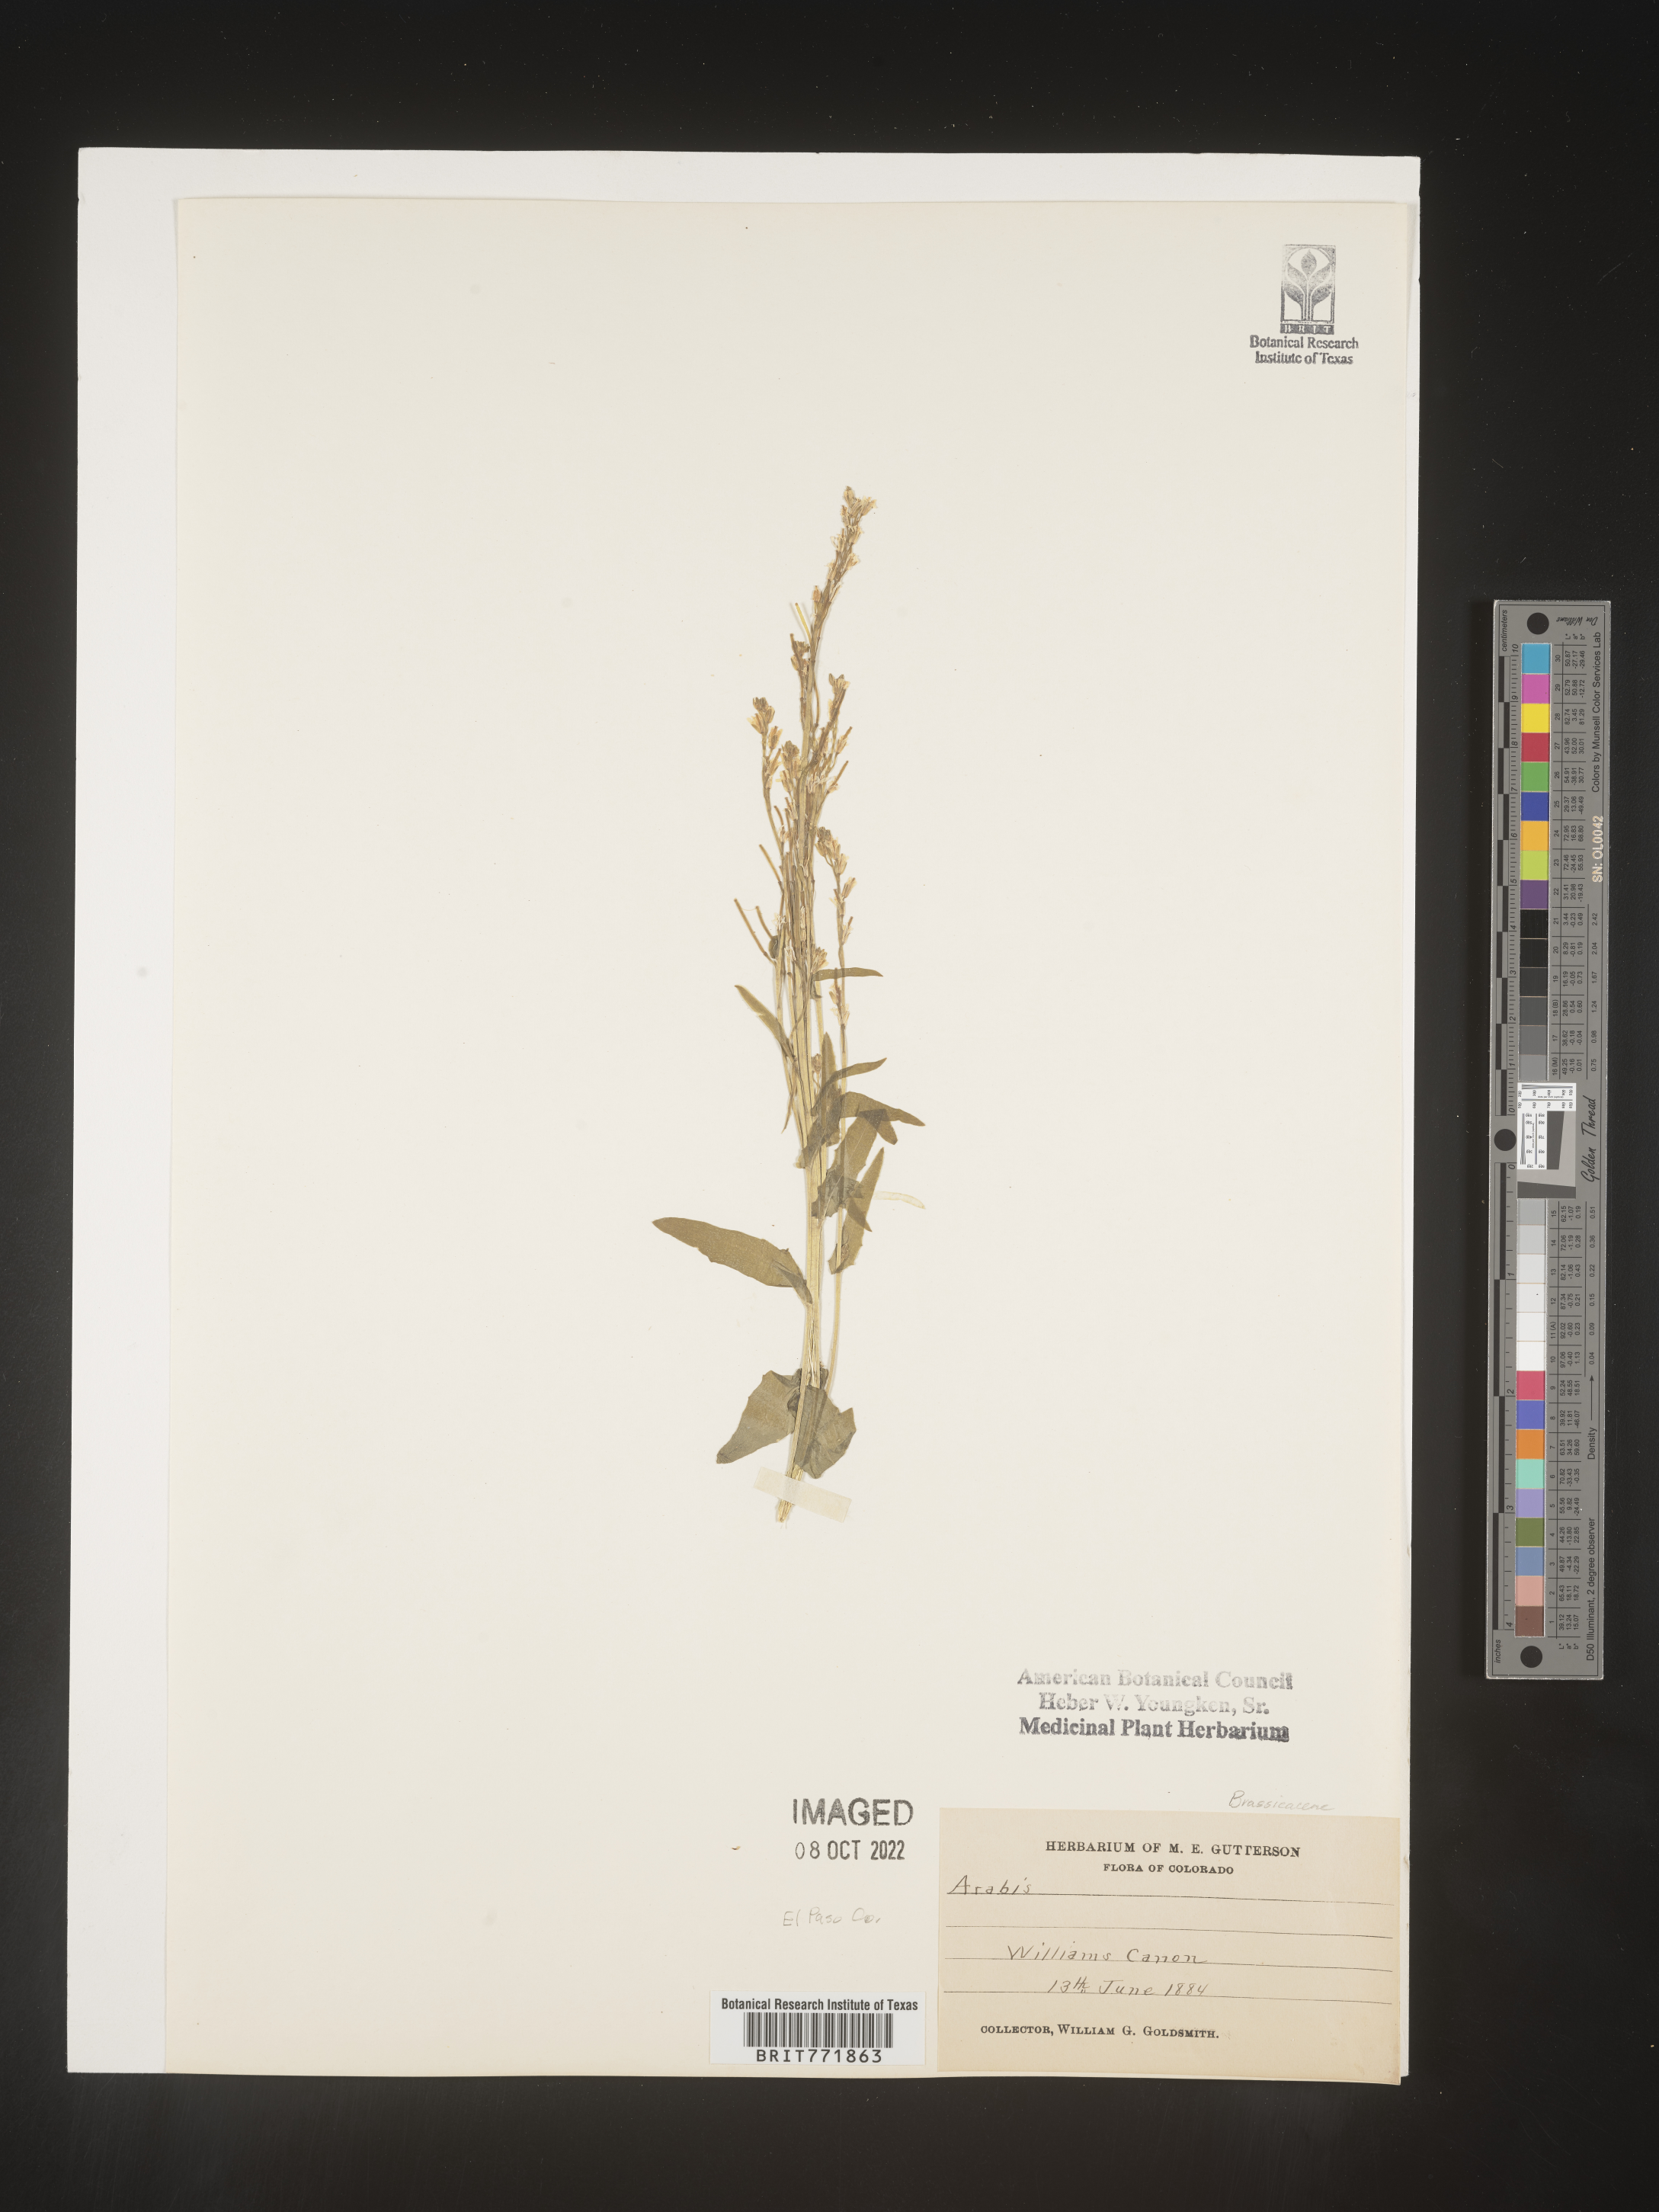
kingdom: Plantae
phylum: Tracheophyta
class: Magnoliopsida
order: Brassicales
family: Brassicaceae
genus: Arabis
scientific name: Arabis
